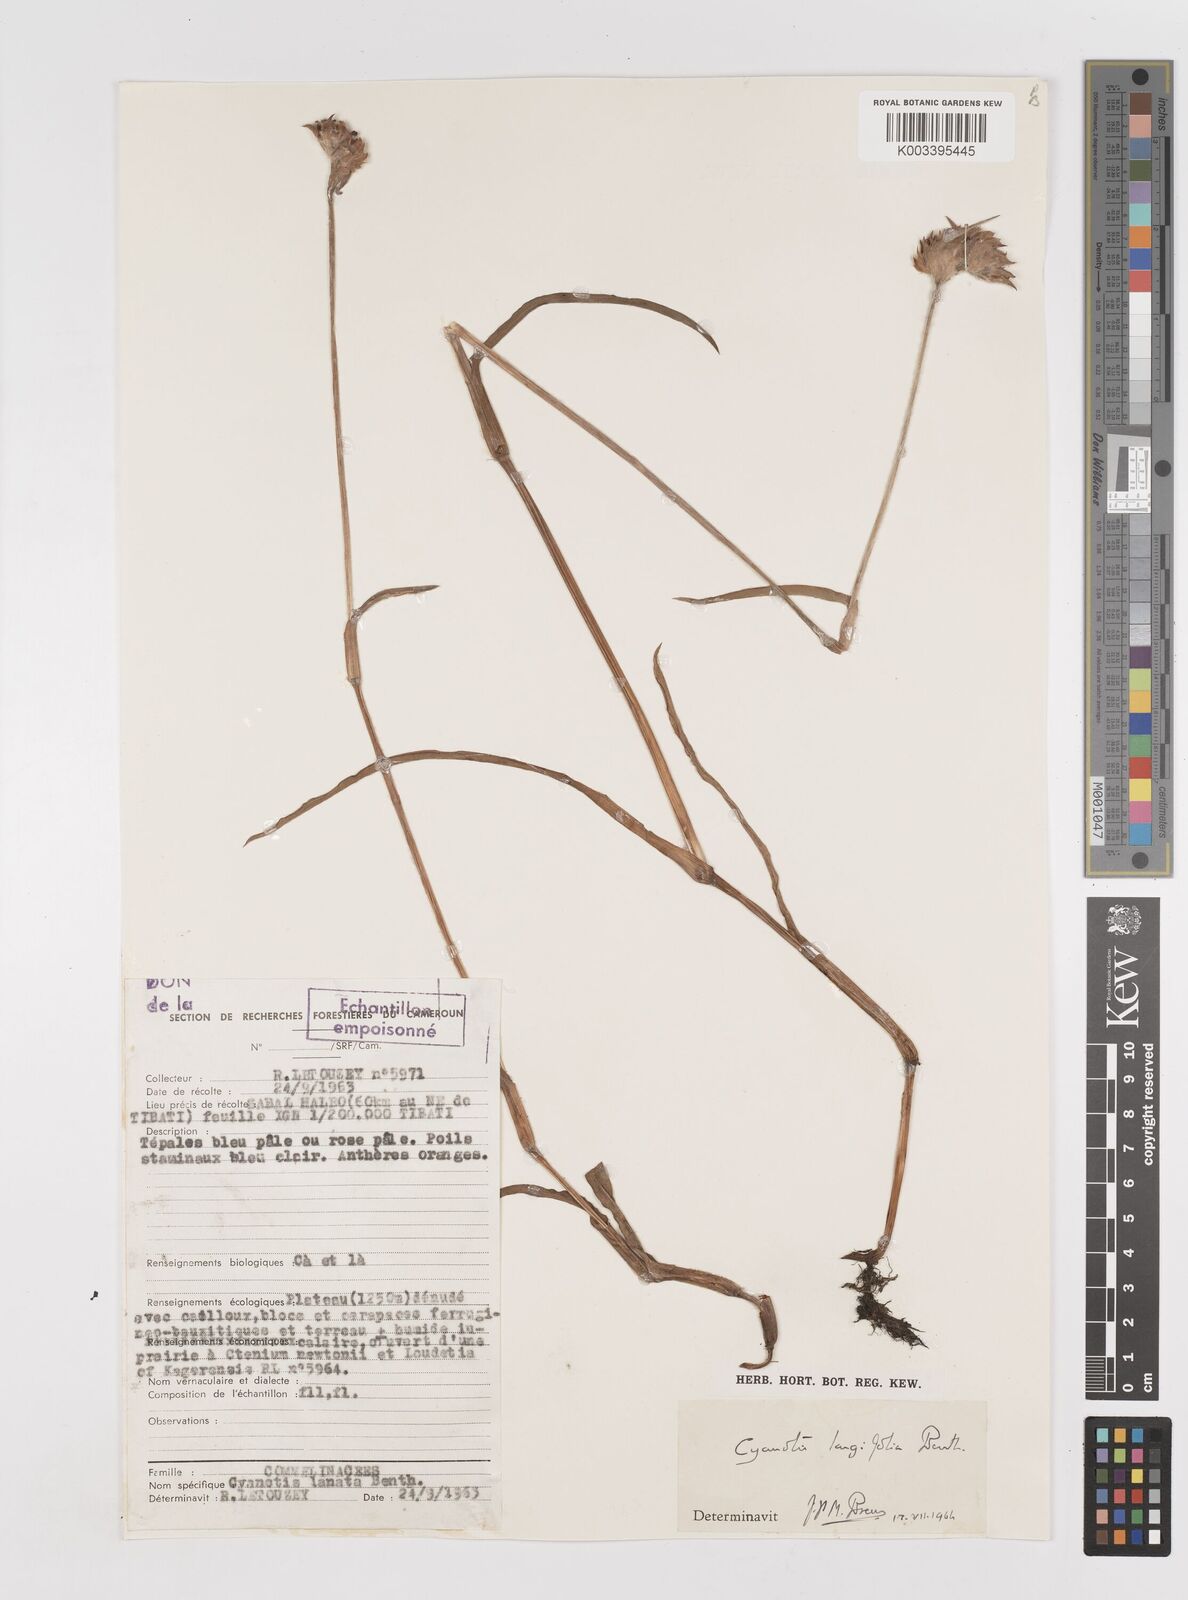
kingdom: Plantae
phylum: Tracheophyta
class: Liliopsida
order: Commelinales
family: Commelinaceae
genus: Cyanotis
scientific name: Cyanotis longifolia
